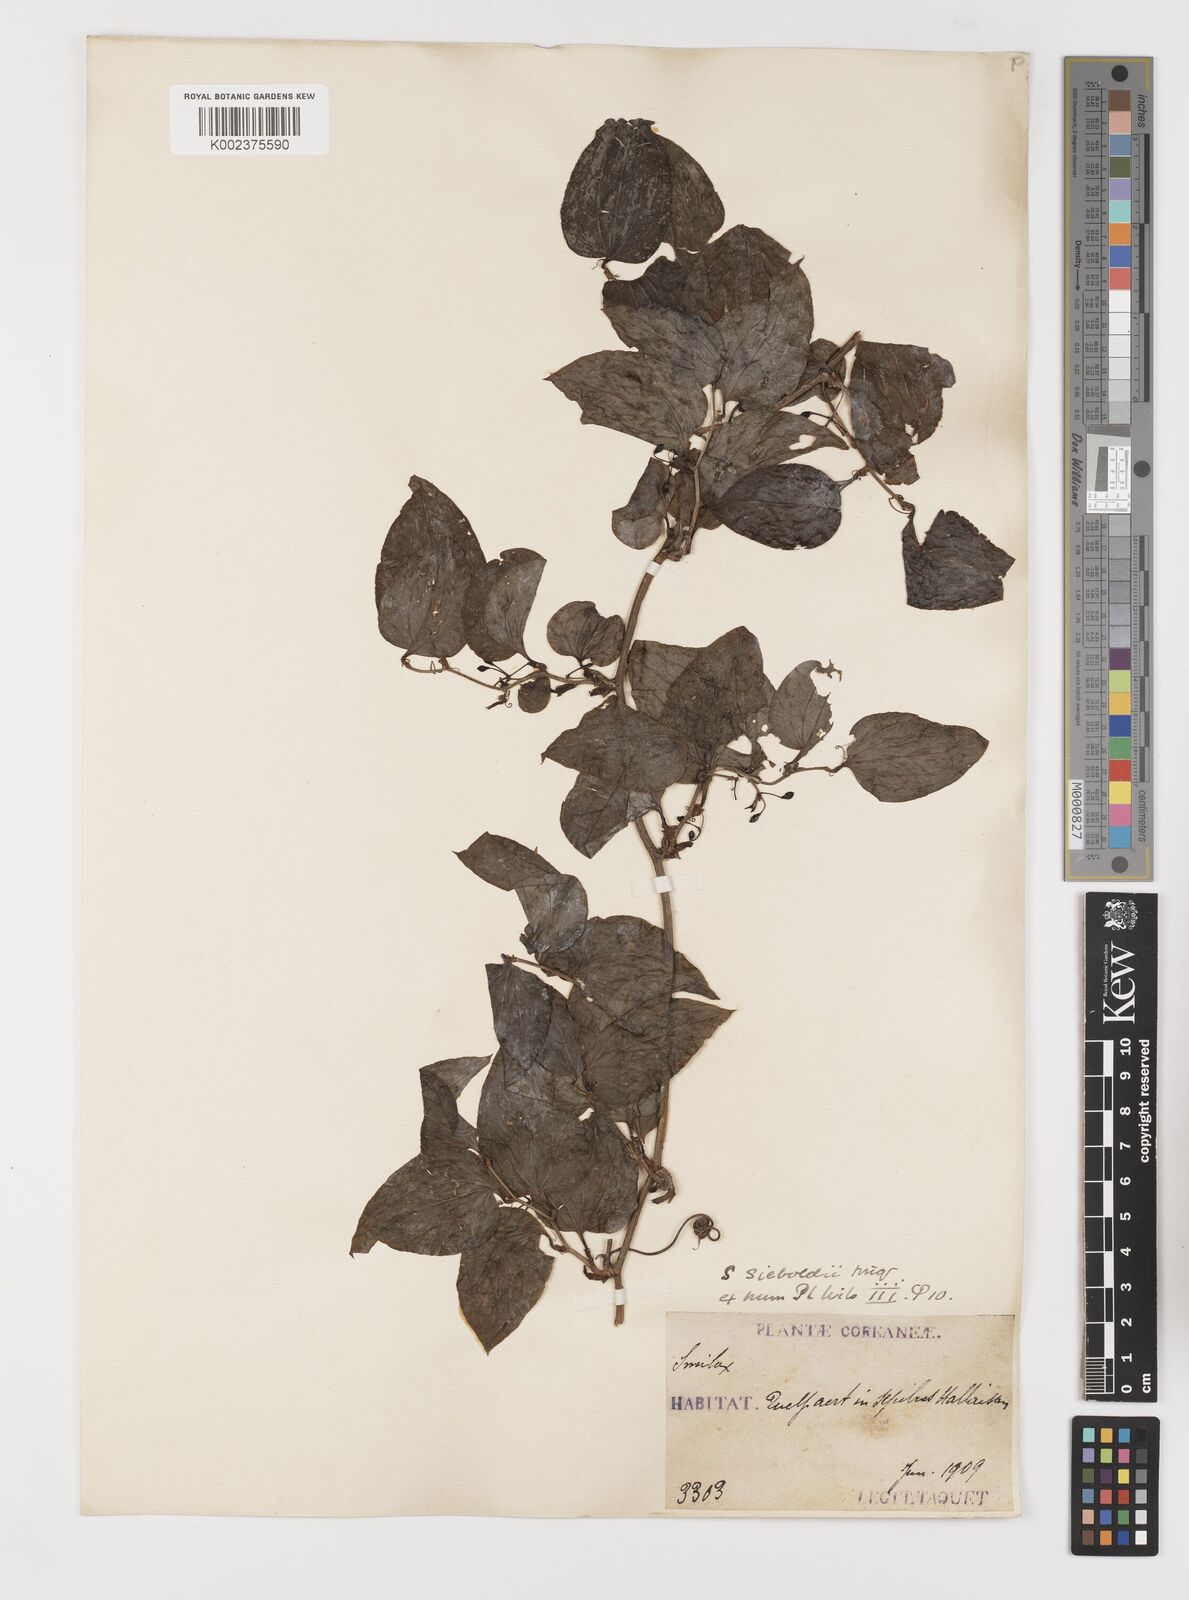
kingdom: Plantae
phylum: Tracheophyta
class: Liliopsida
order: Liliales
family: Smilacaceae
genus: Smilax
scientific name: Smilax sieboldii
